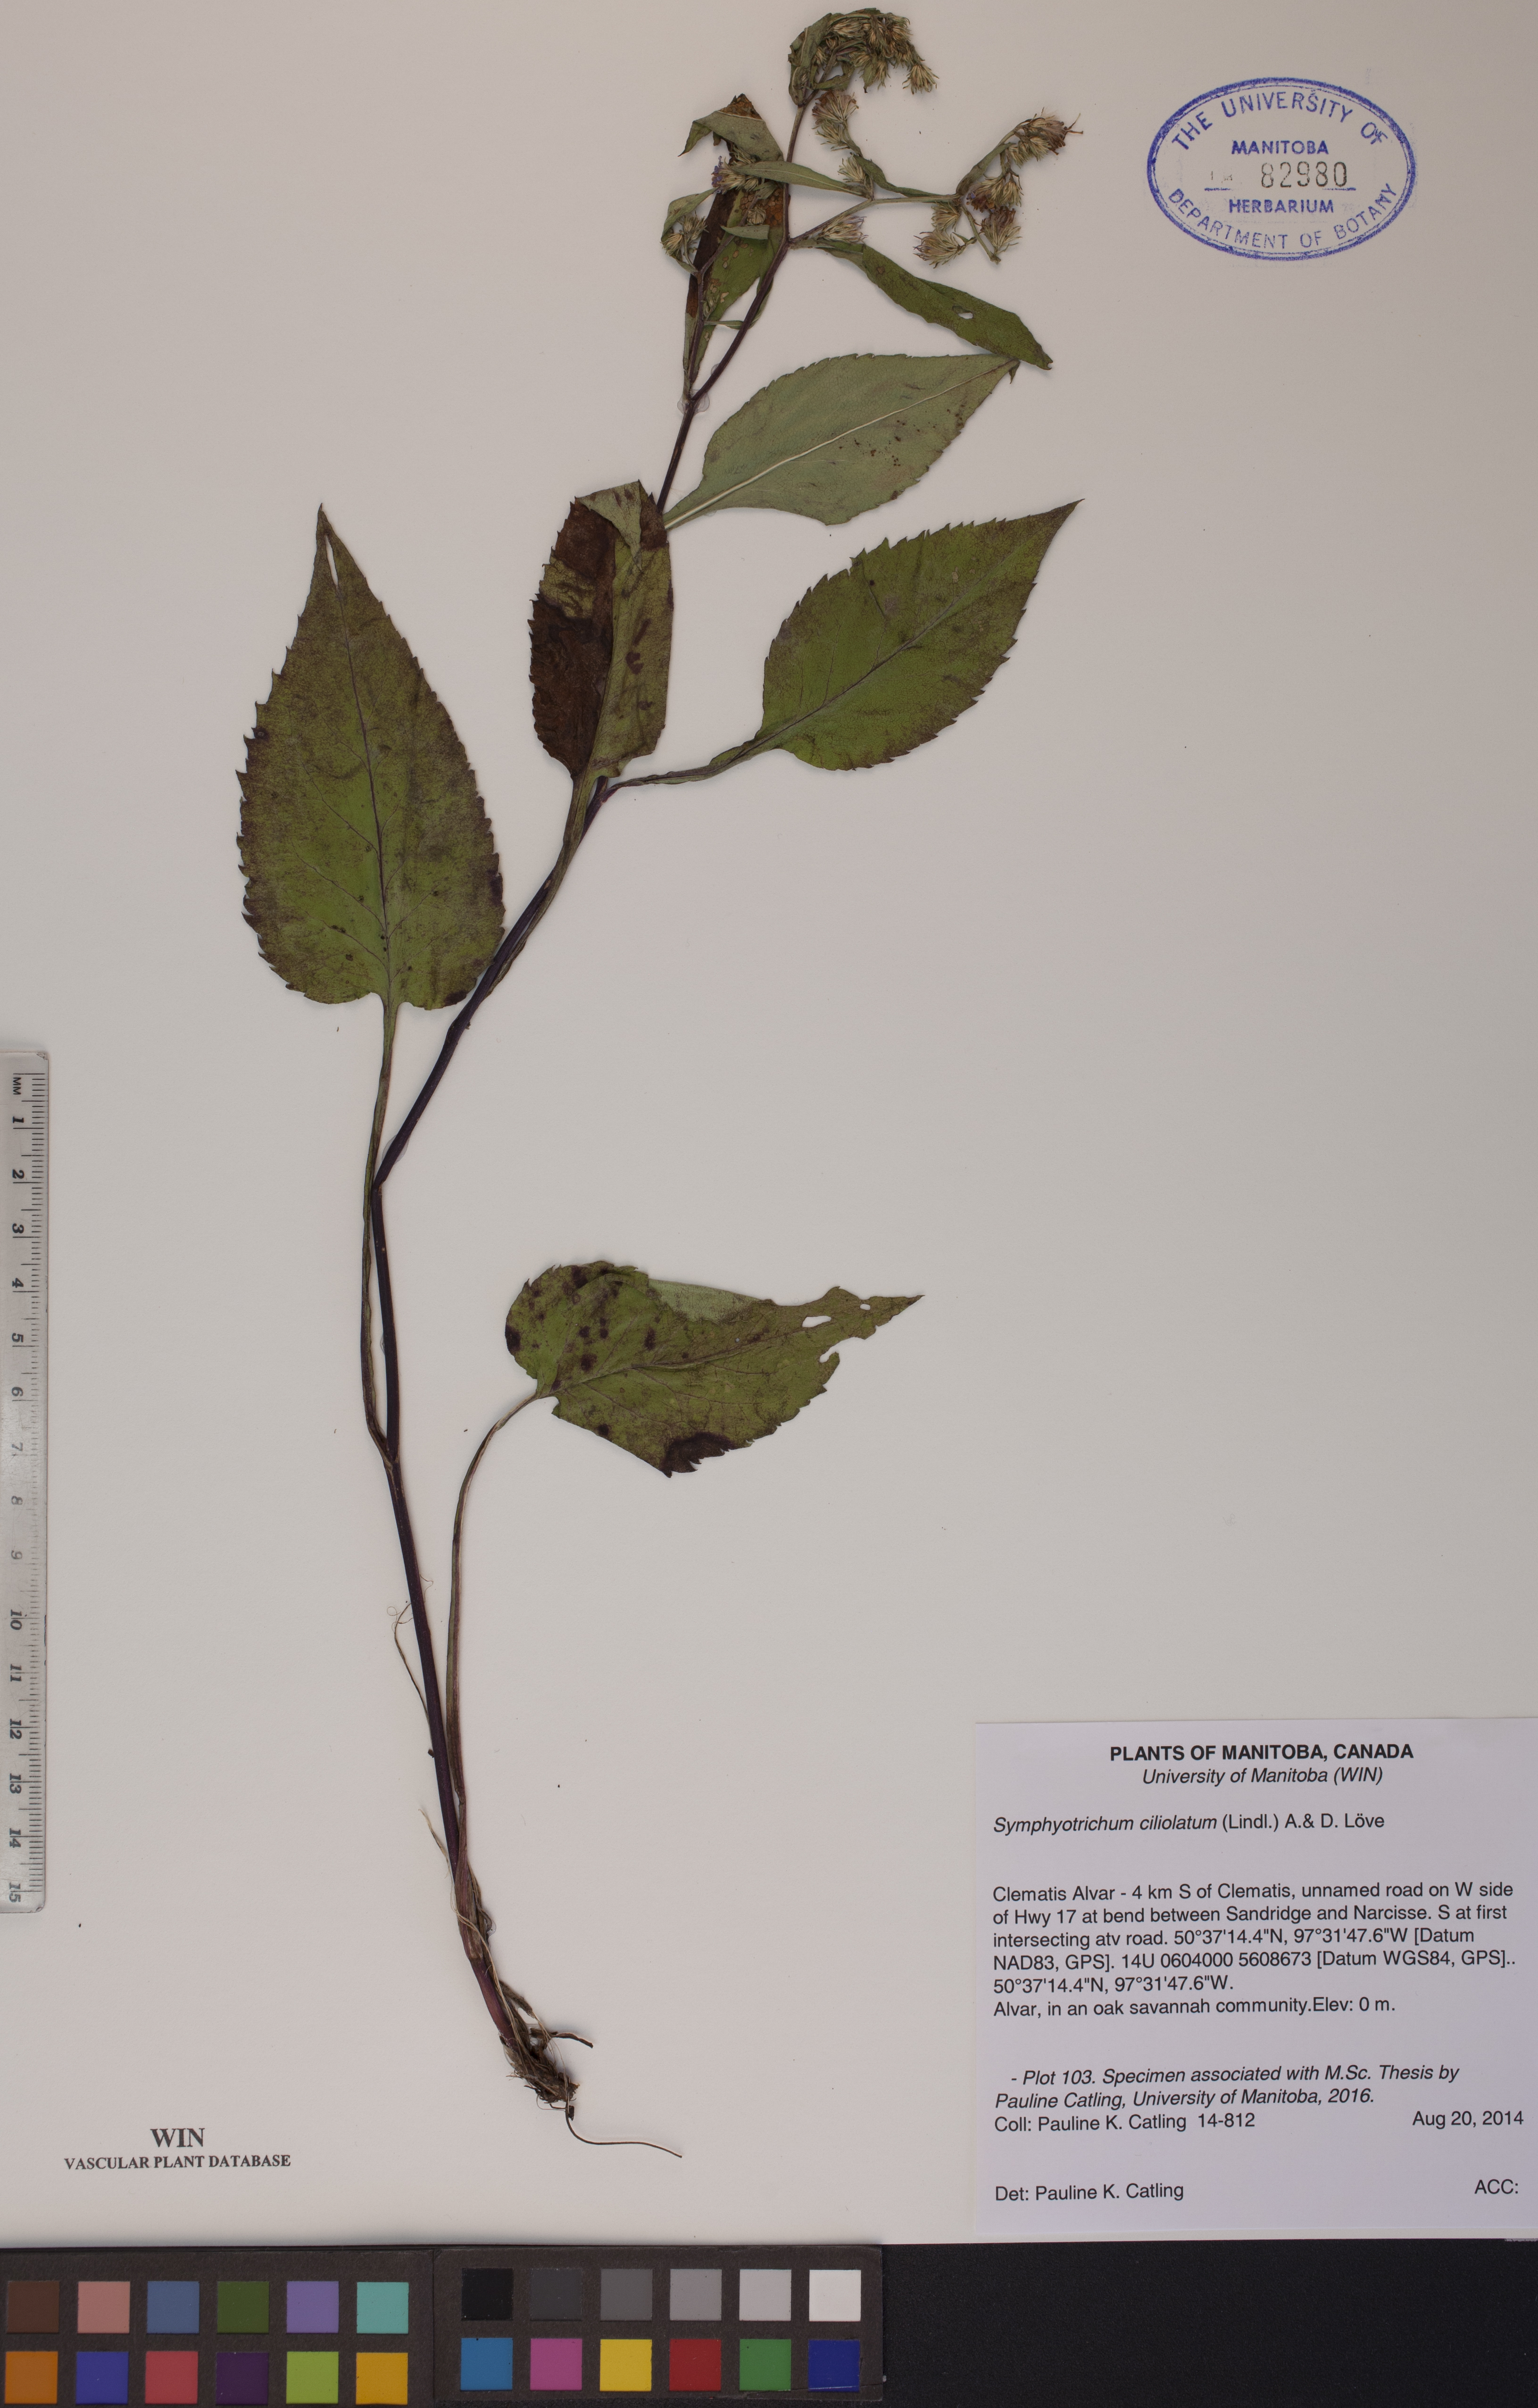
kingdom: Plantae
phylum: Tracheophyta
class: Magnoliopsida
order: Asterales
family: Asteraceae
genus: Symphyotrichum
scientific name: Symphyotrichum ciliolatum
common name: Fringed blue aster
